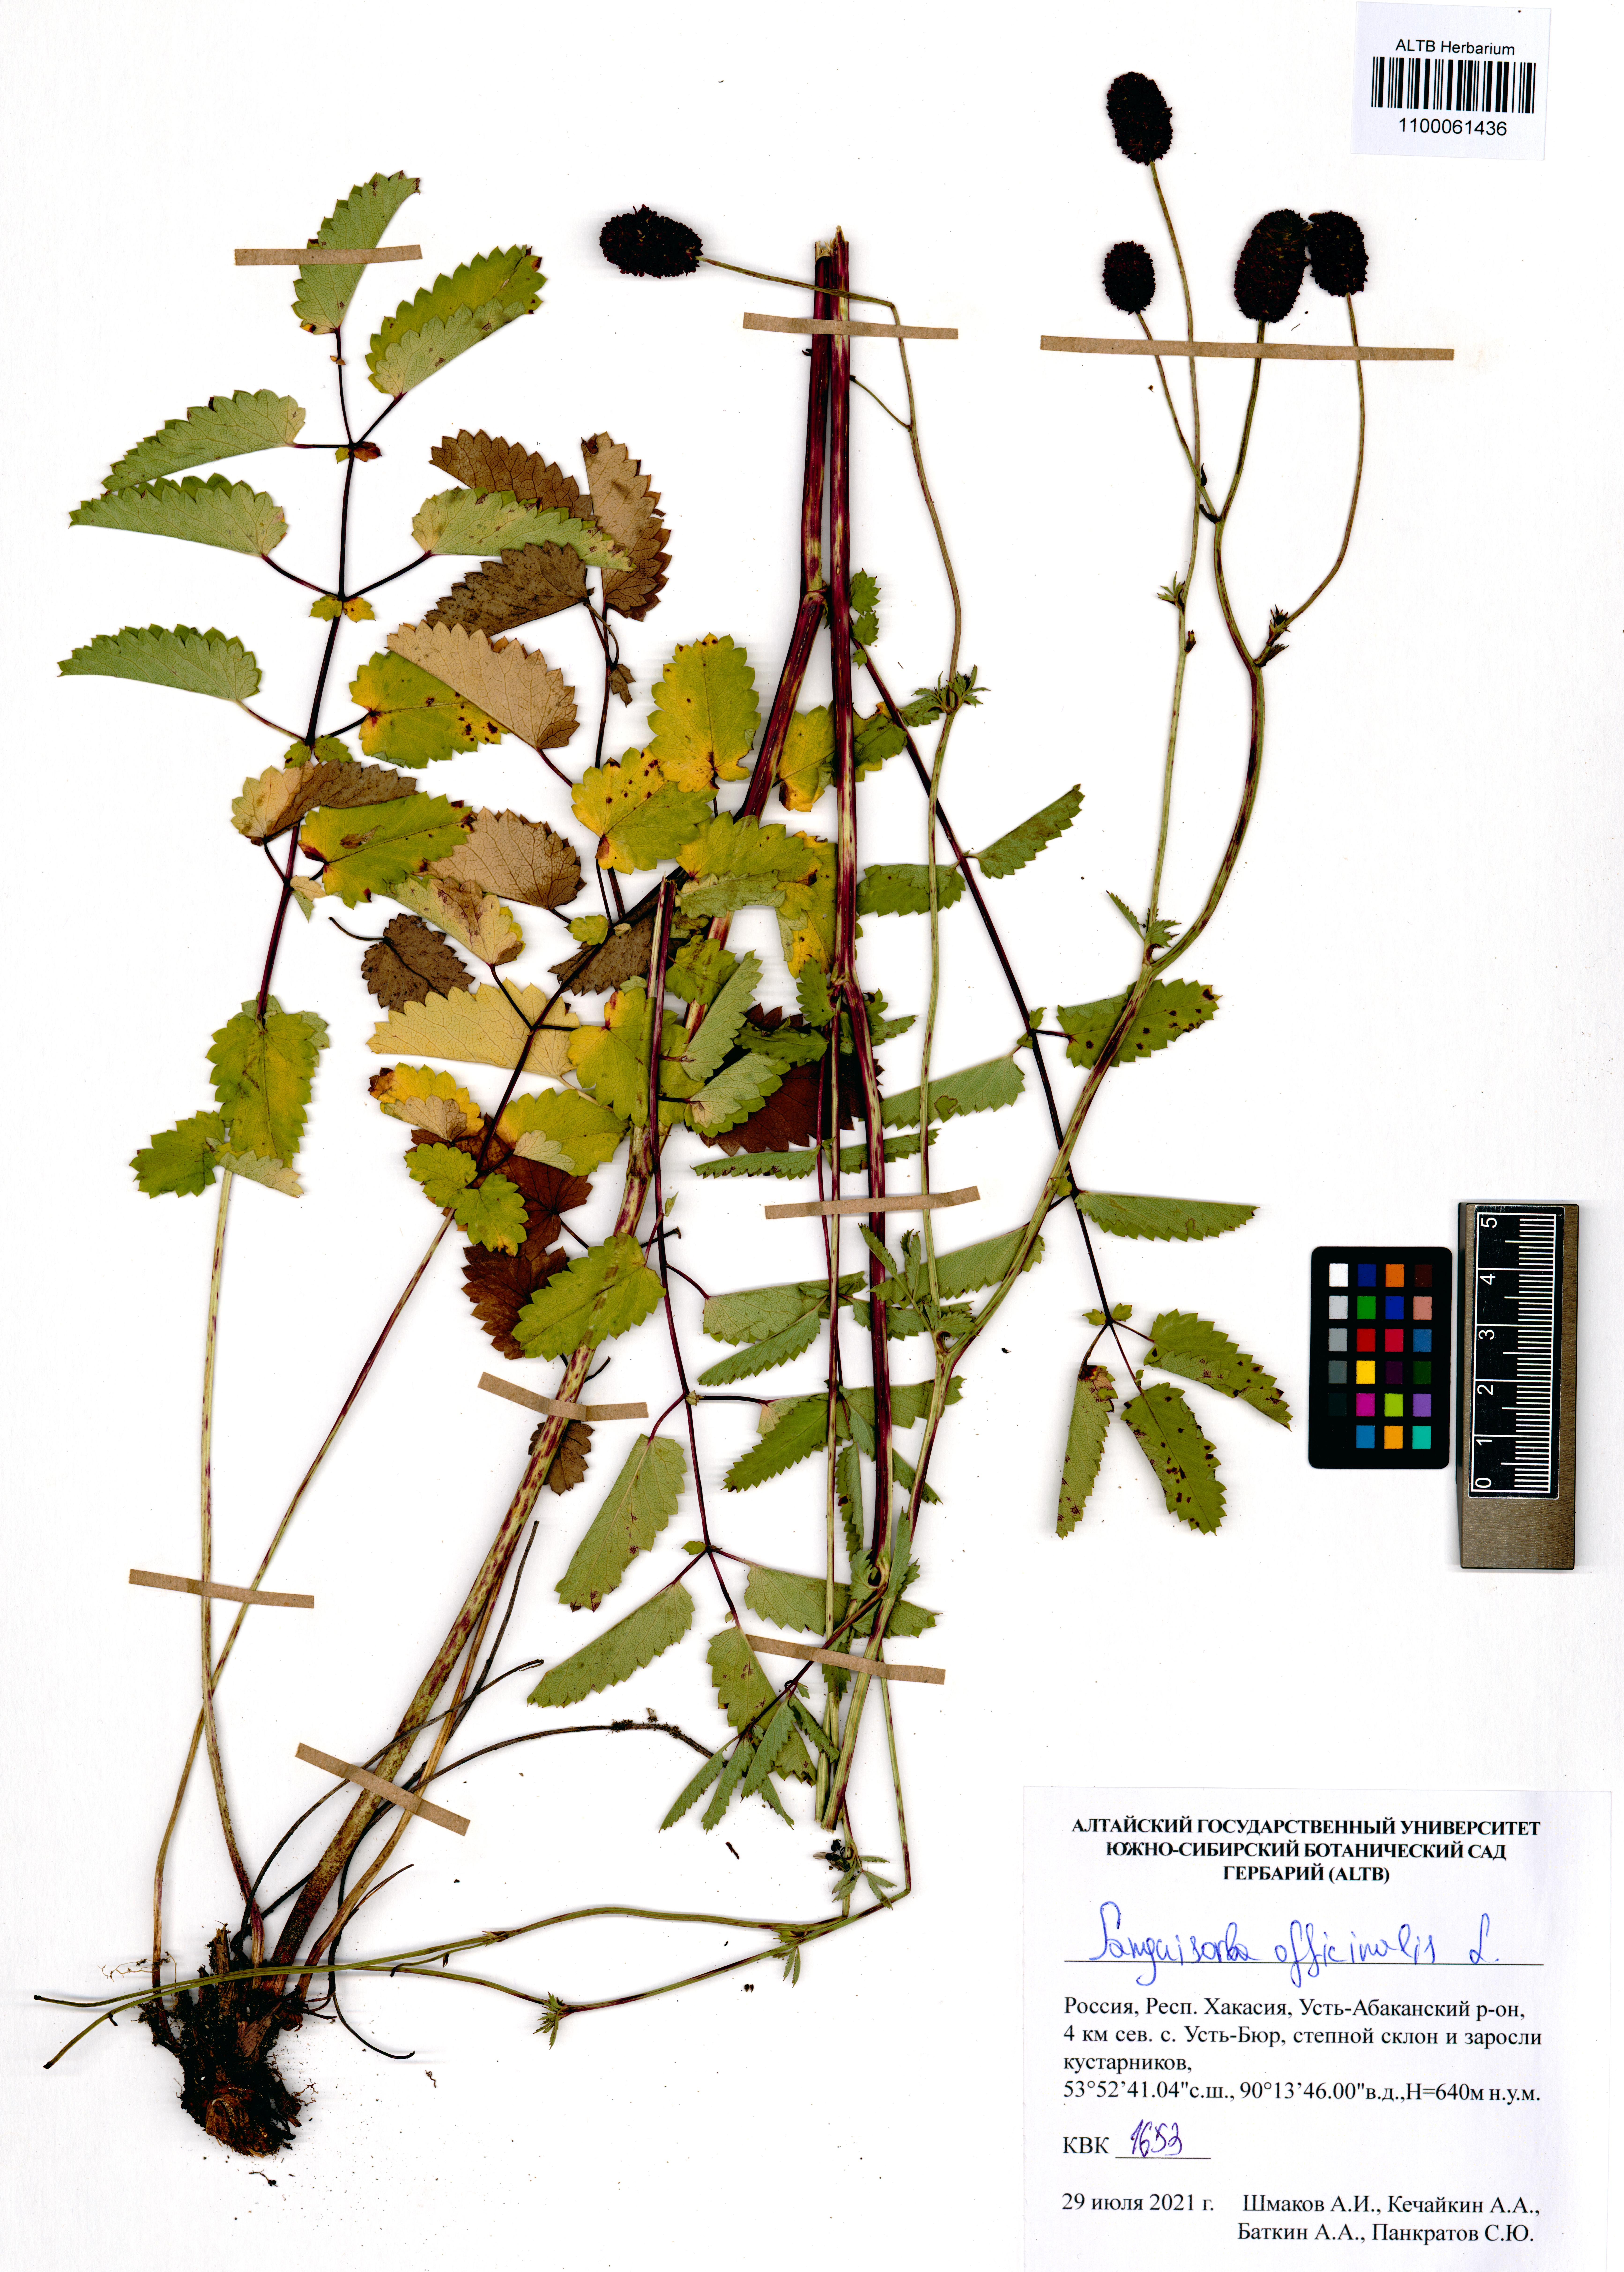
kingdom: Plantae
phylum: Tracheophyta
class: Magnoliopsida
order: Rosales
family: Rosaceae
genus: Sanguisorba
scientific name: Sanguisorba officinalis
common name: Great burnet
